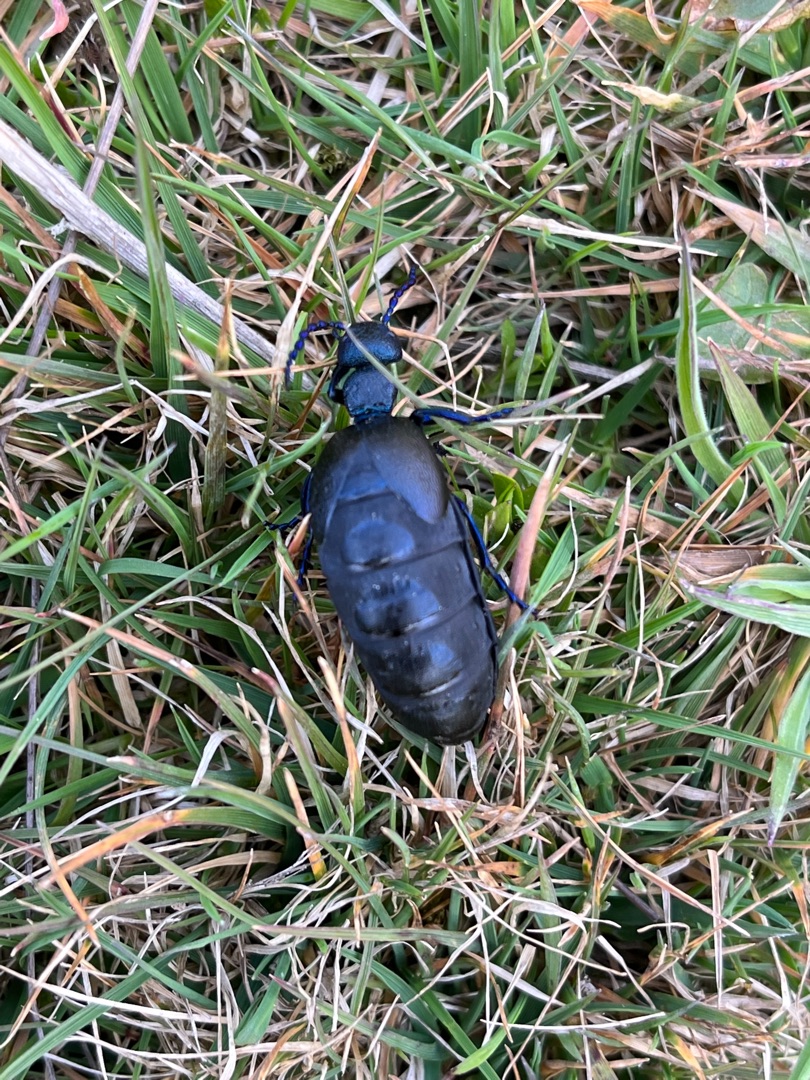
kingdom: Animalia
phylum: Arthropoda
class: Insecta
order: Coleoptera
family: Meloidae
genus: Meloe
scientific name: Meloe proscarabaeus
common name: Sort oliebille
